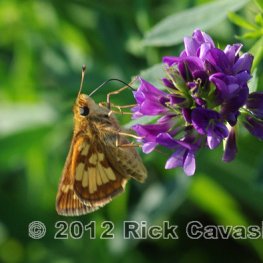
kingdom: Animalia
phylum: Arthropoda
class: Insecta
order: Lepidoptera
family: Hesperiidae
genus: Polites
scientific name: Polites coras
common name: Peck's Skipper
